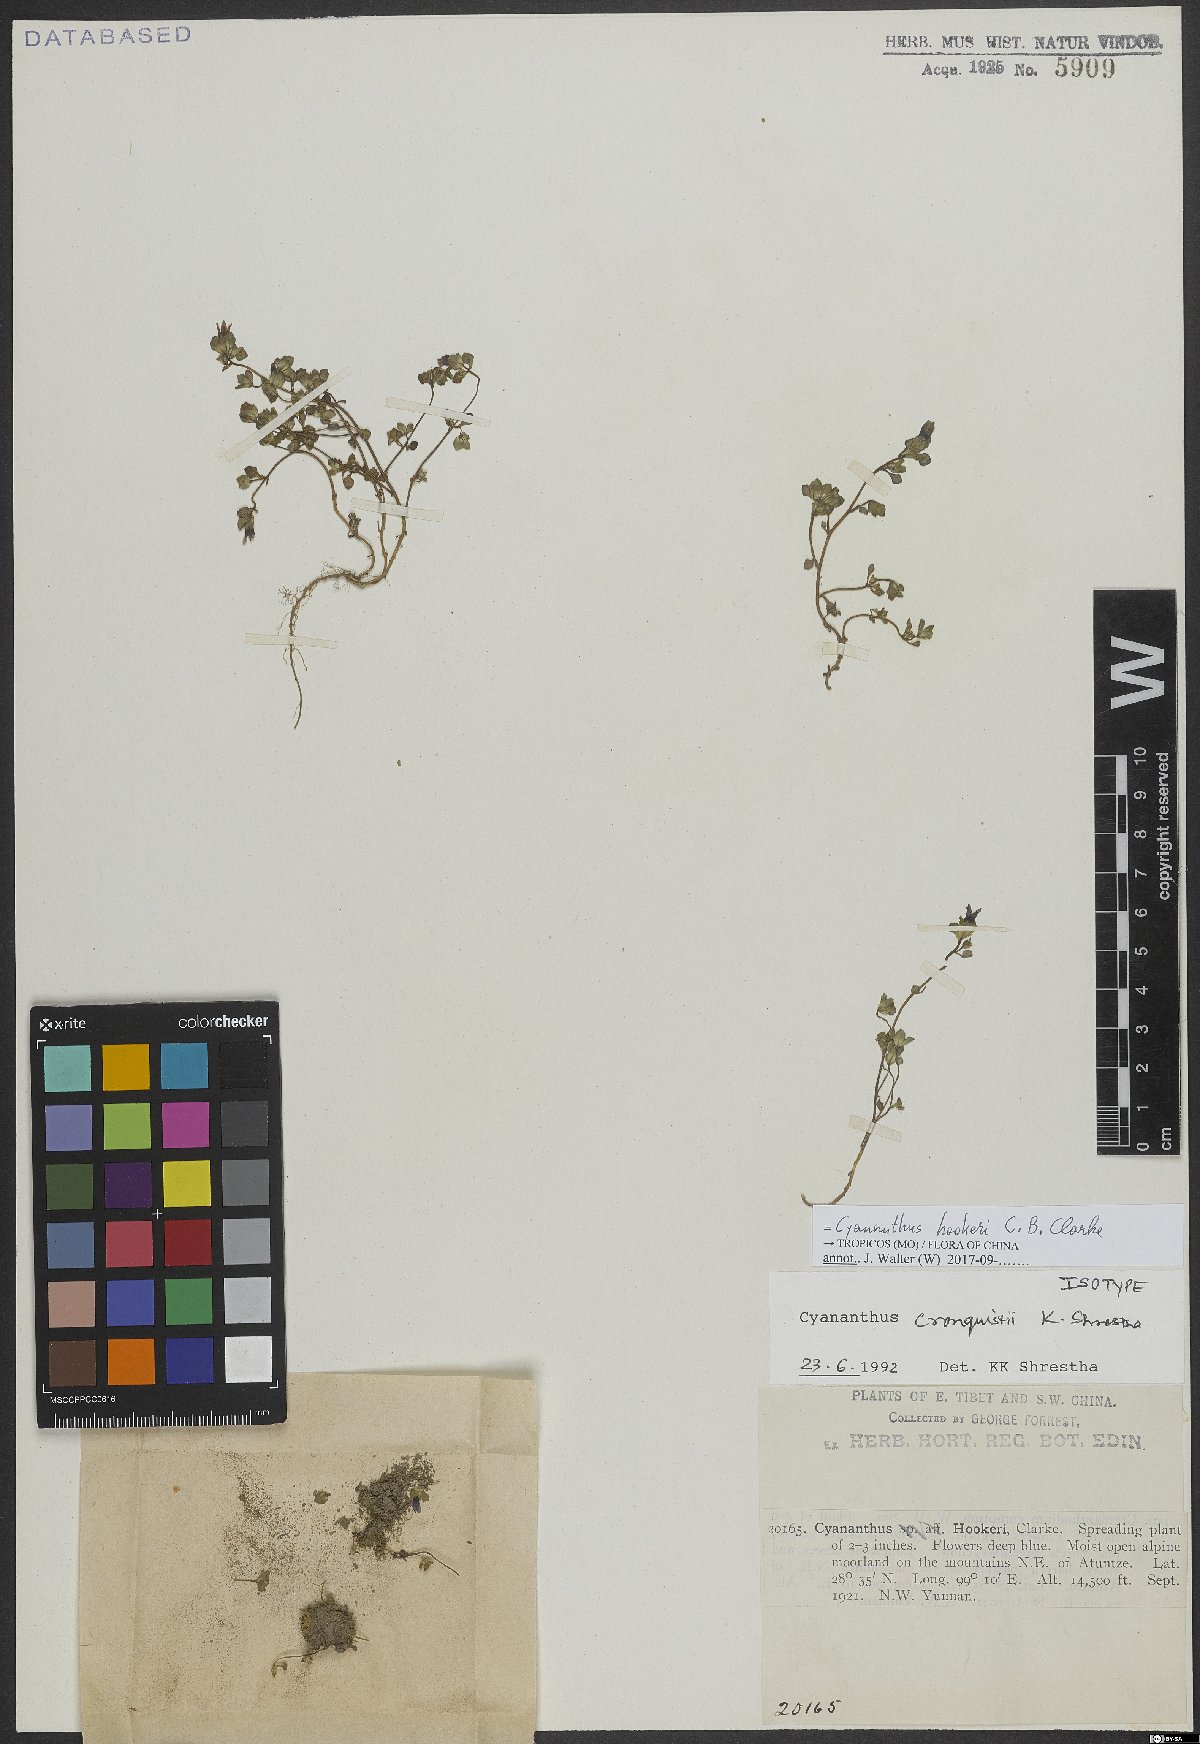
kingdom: Plantae
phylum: Tracheophyta
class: Magnoliopsida
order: Asterales
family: Campanulaceae
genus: Cyananthus
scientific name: Cyananthus hookeri
